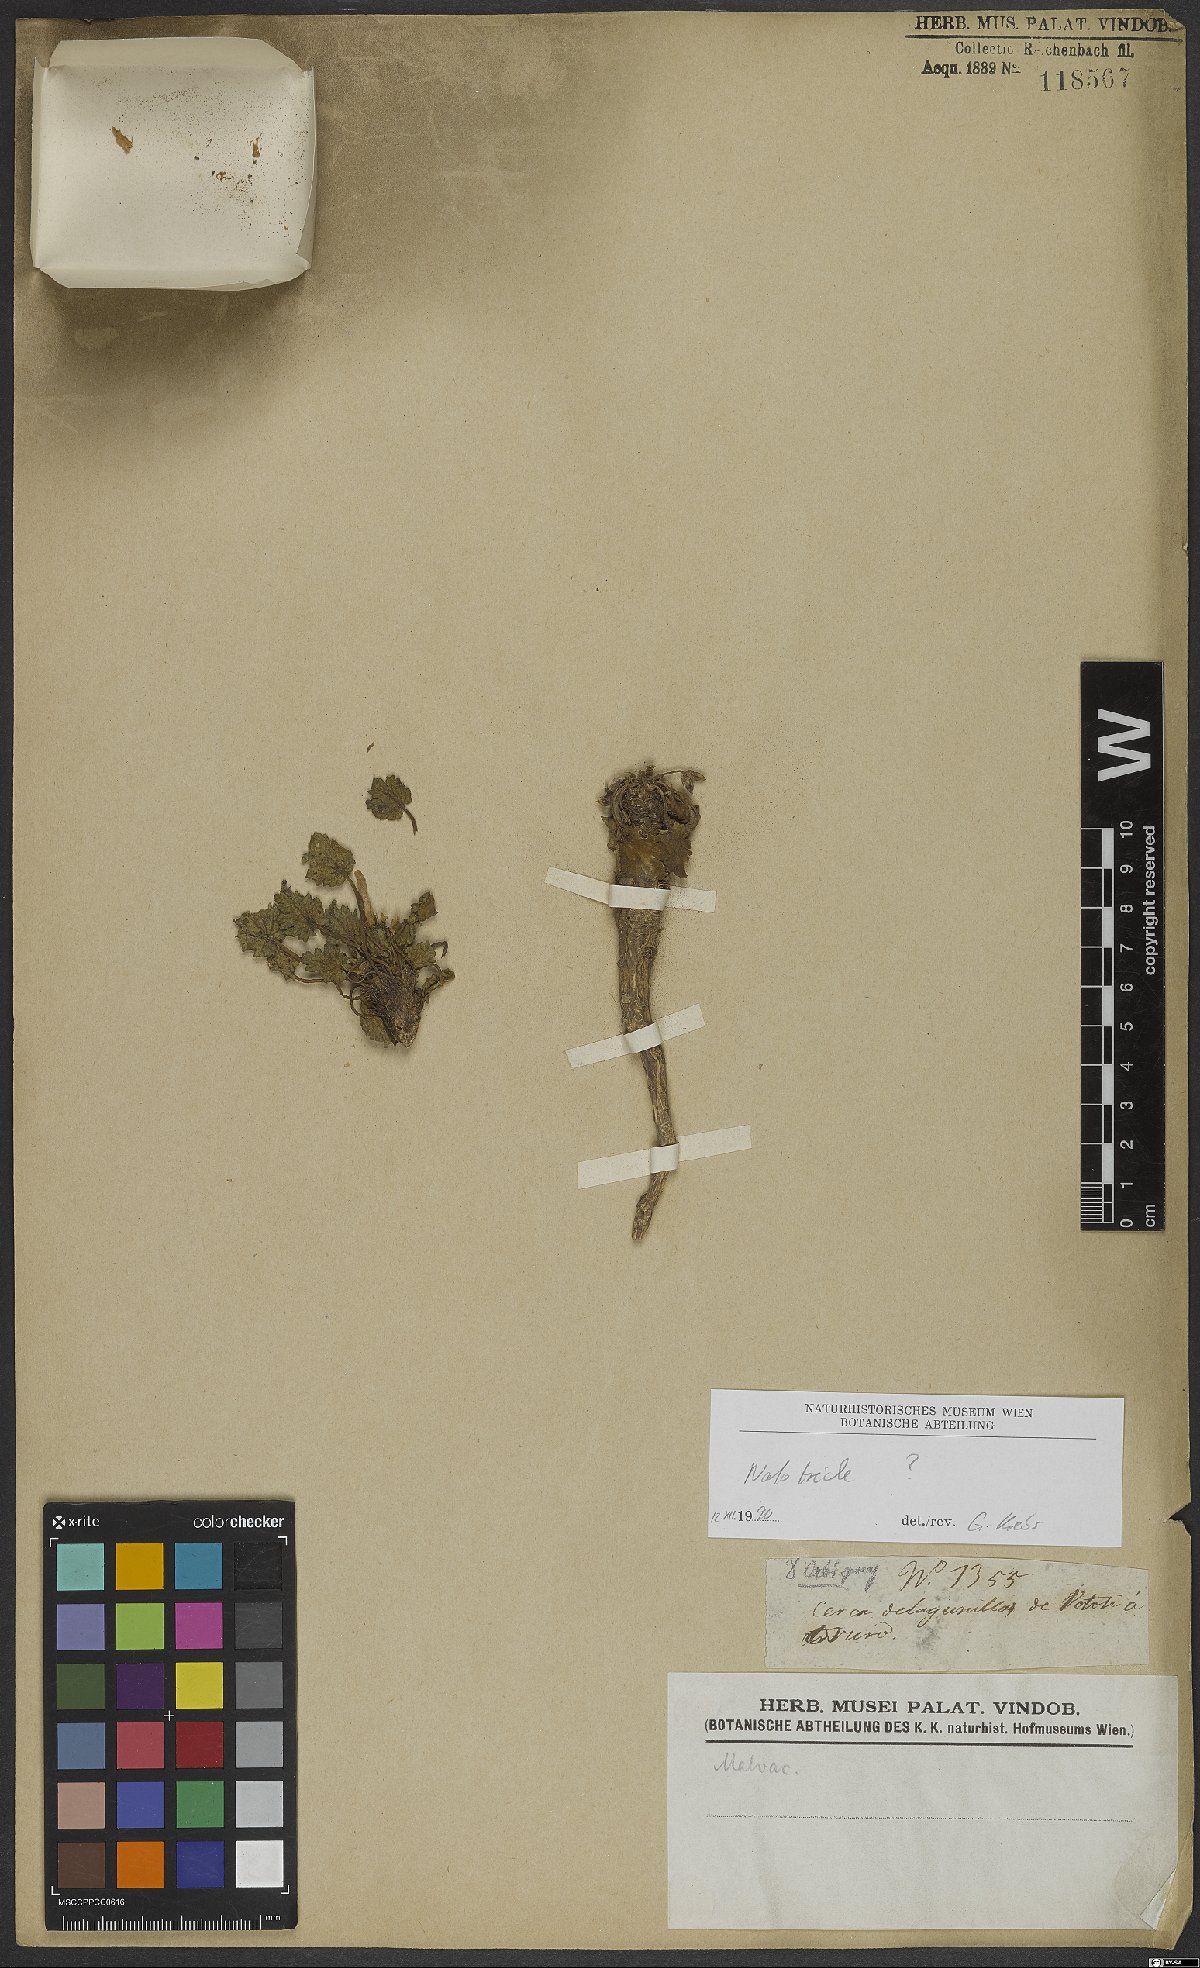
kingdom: Plantae
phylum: Tracheophyta
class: Magnoliopsida
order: Malvales
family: Malvaceae
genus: Nototriche
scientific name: Nototriche orbignyana
